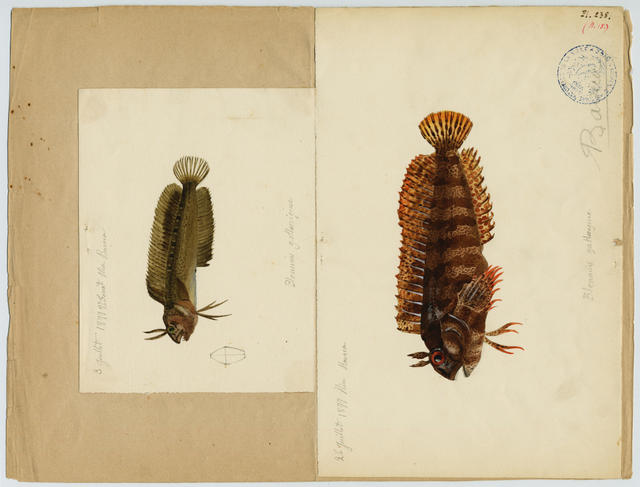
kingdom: Animalia
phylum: Chordata
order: Perciformes
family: Blenniidae
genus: Parablennius
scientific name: Parablennius gattorugine
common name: Tompot blenny
